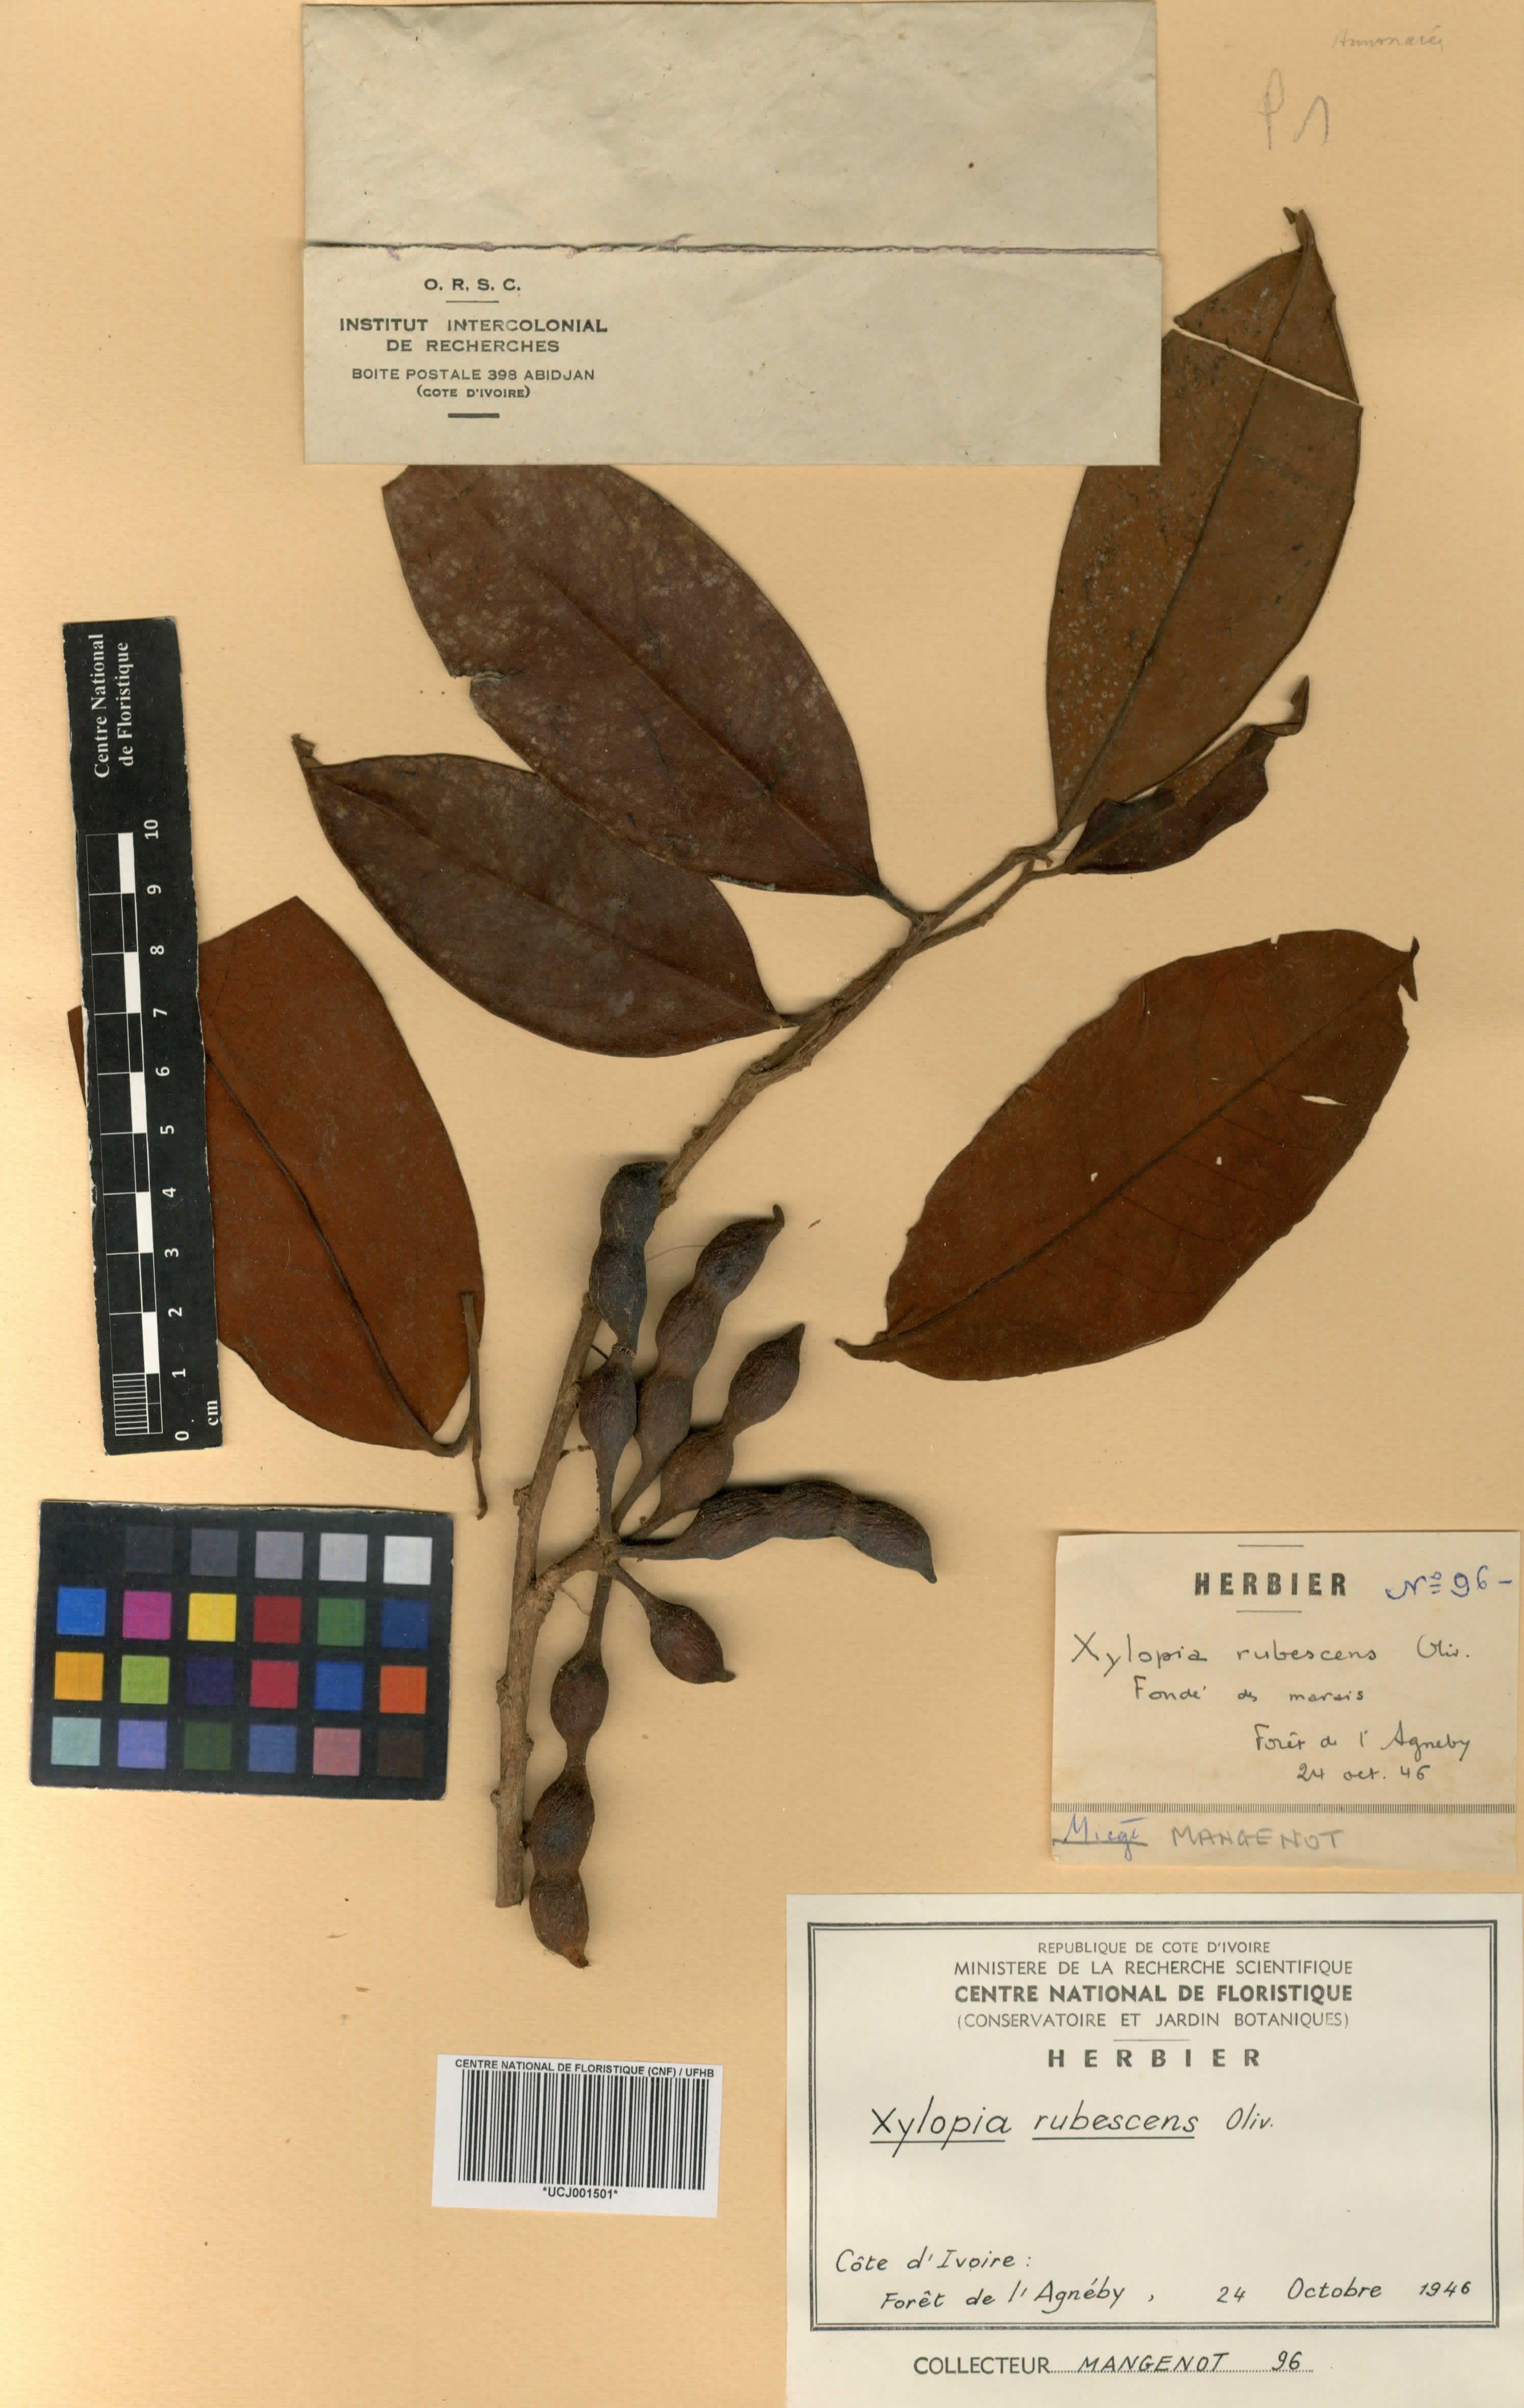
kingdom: Plantae
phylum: Tracheophyta
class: Magnoliopsida
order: Magnoliales
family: Annonaceae
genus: Xylopia
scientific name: Xylopia rubescens
